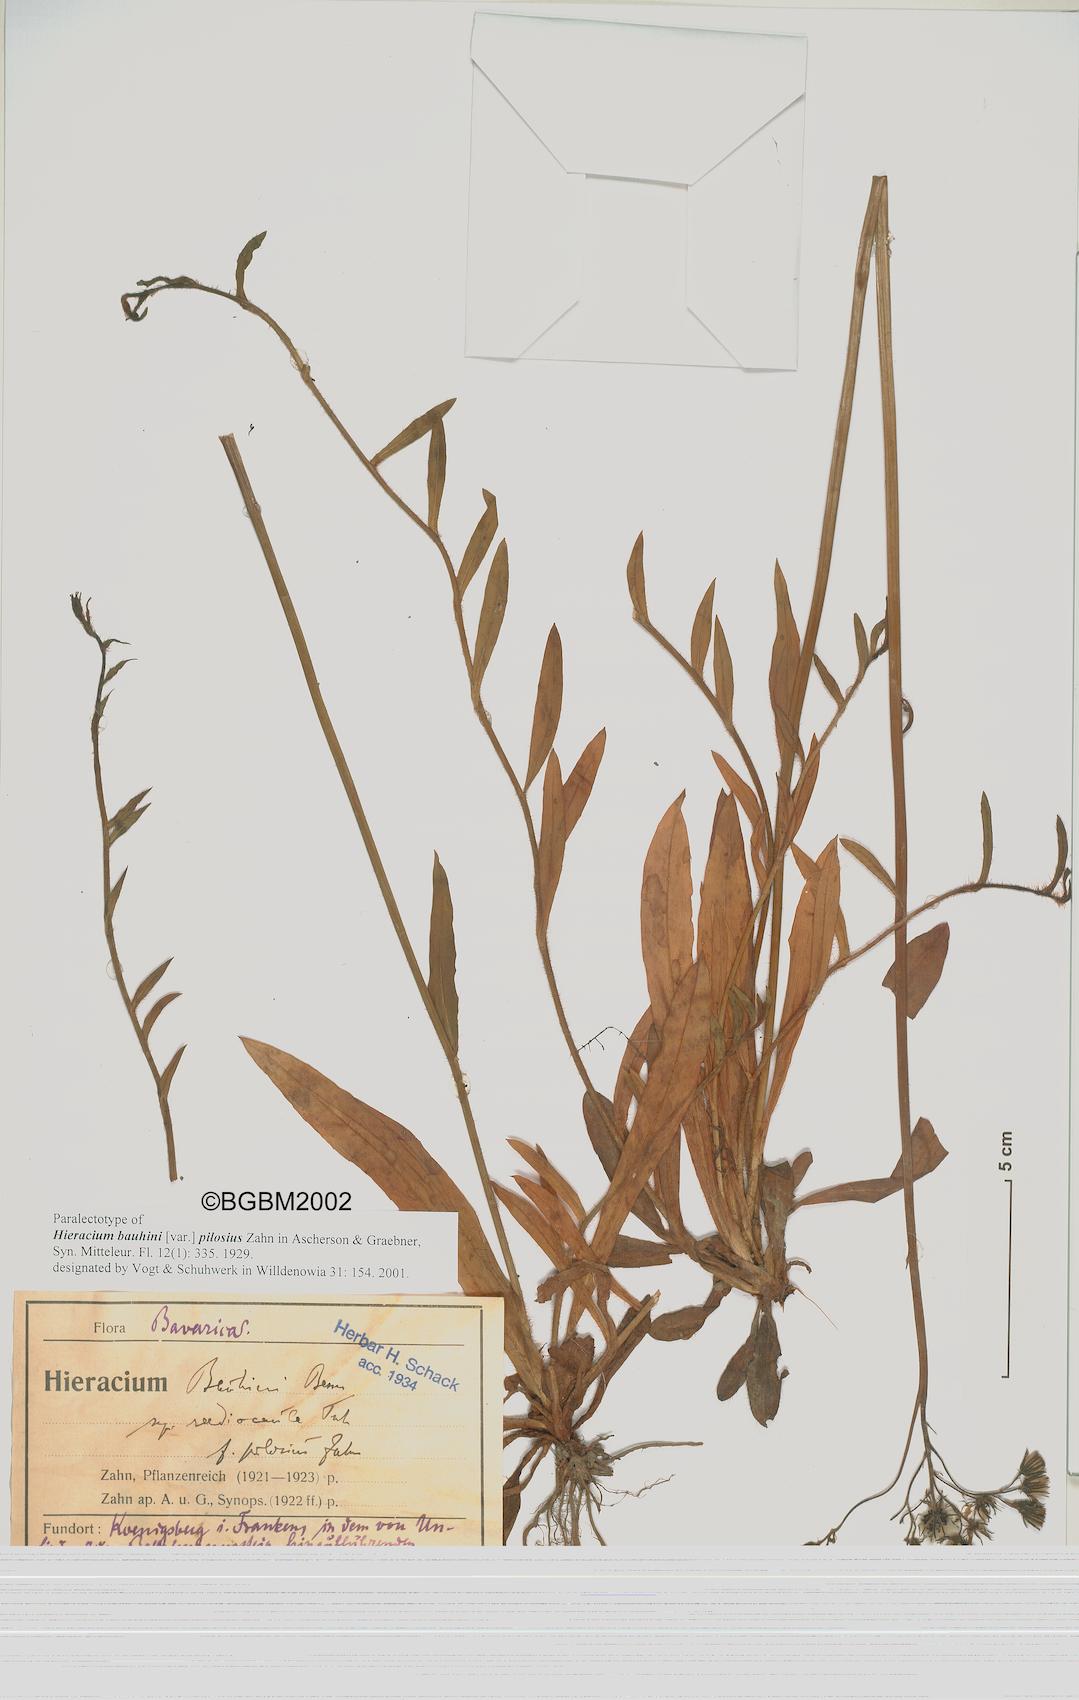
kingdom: Plantae
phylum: Tracheophyta
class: Magnoliopsida
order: Asterales
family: Asteraceae
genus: Pilosella
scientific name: Pilosella bauhini
